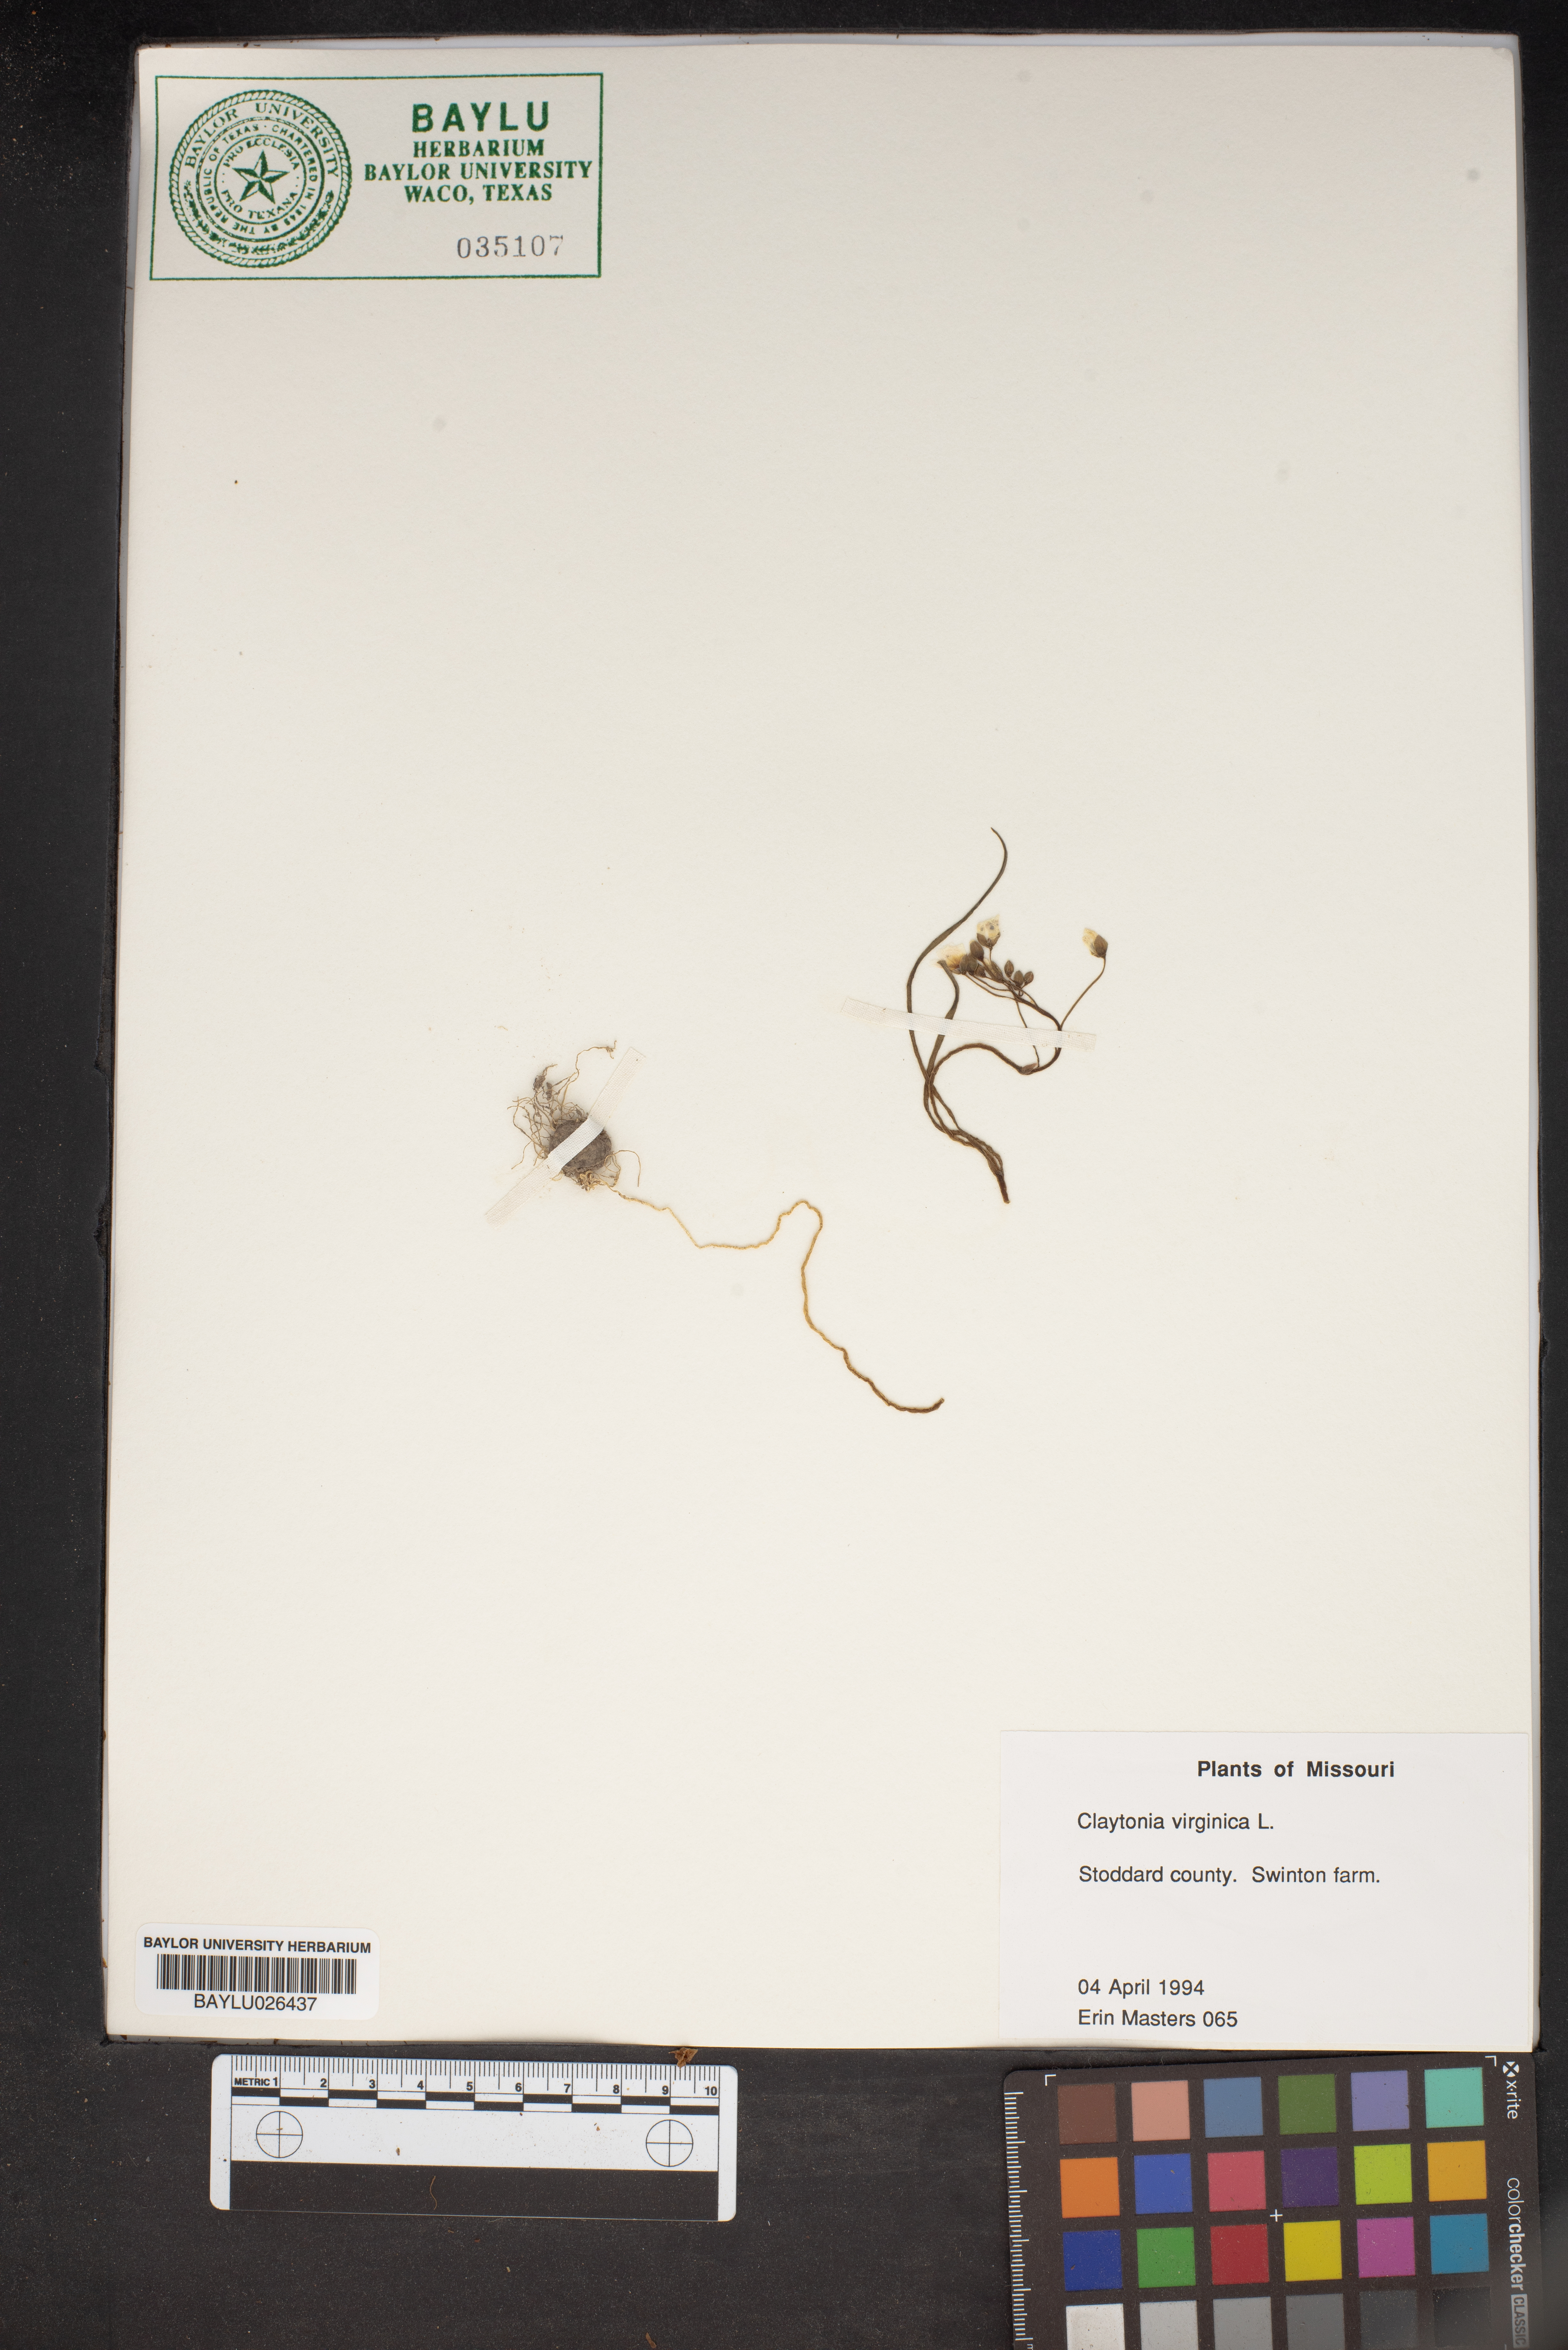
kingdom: Plantae
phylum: Tracheophyta
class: Magnoliopsida
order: Caryophyllales
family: Montiaceae
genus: Claytonia
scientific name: Claytonia virginica
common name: Virginia springbeauty
